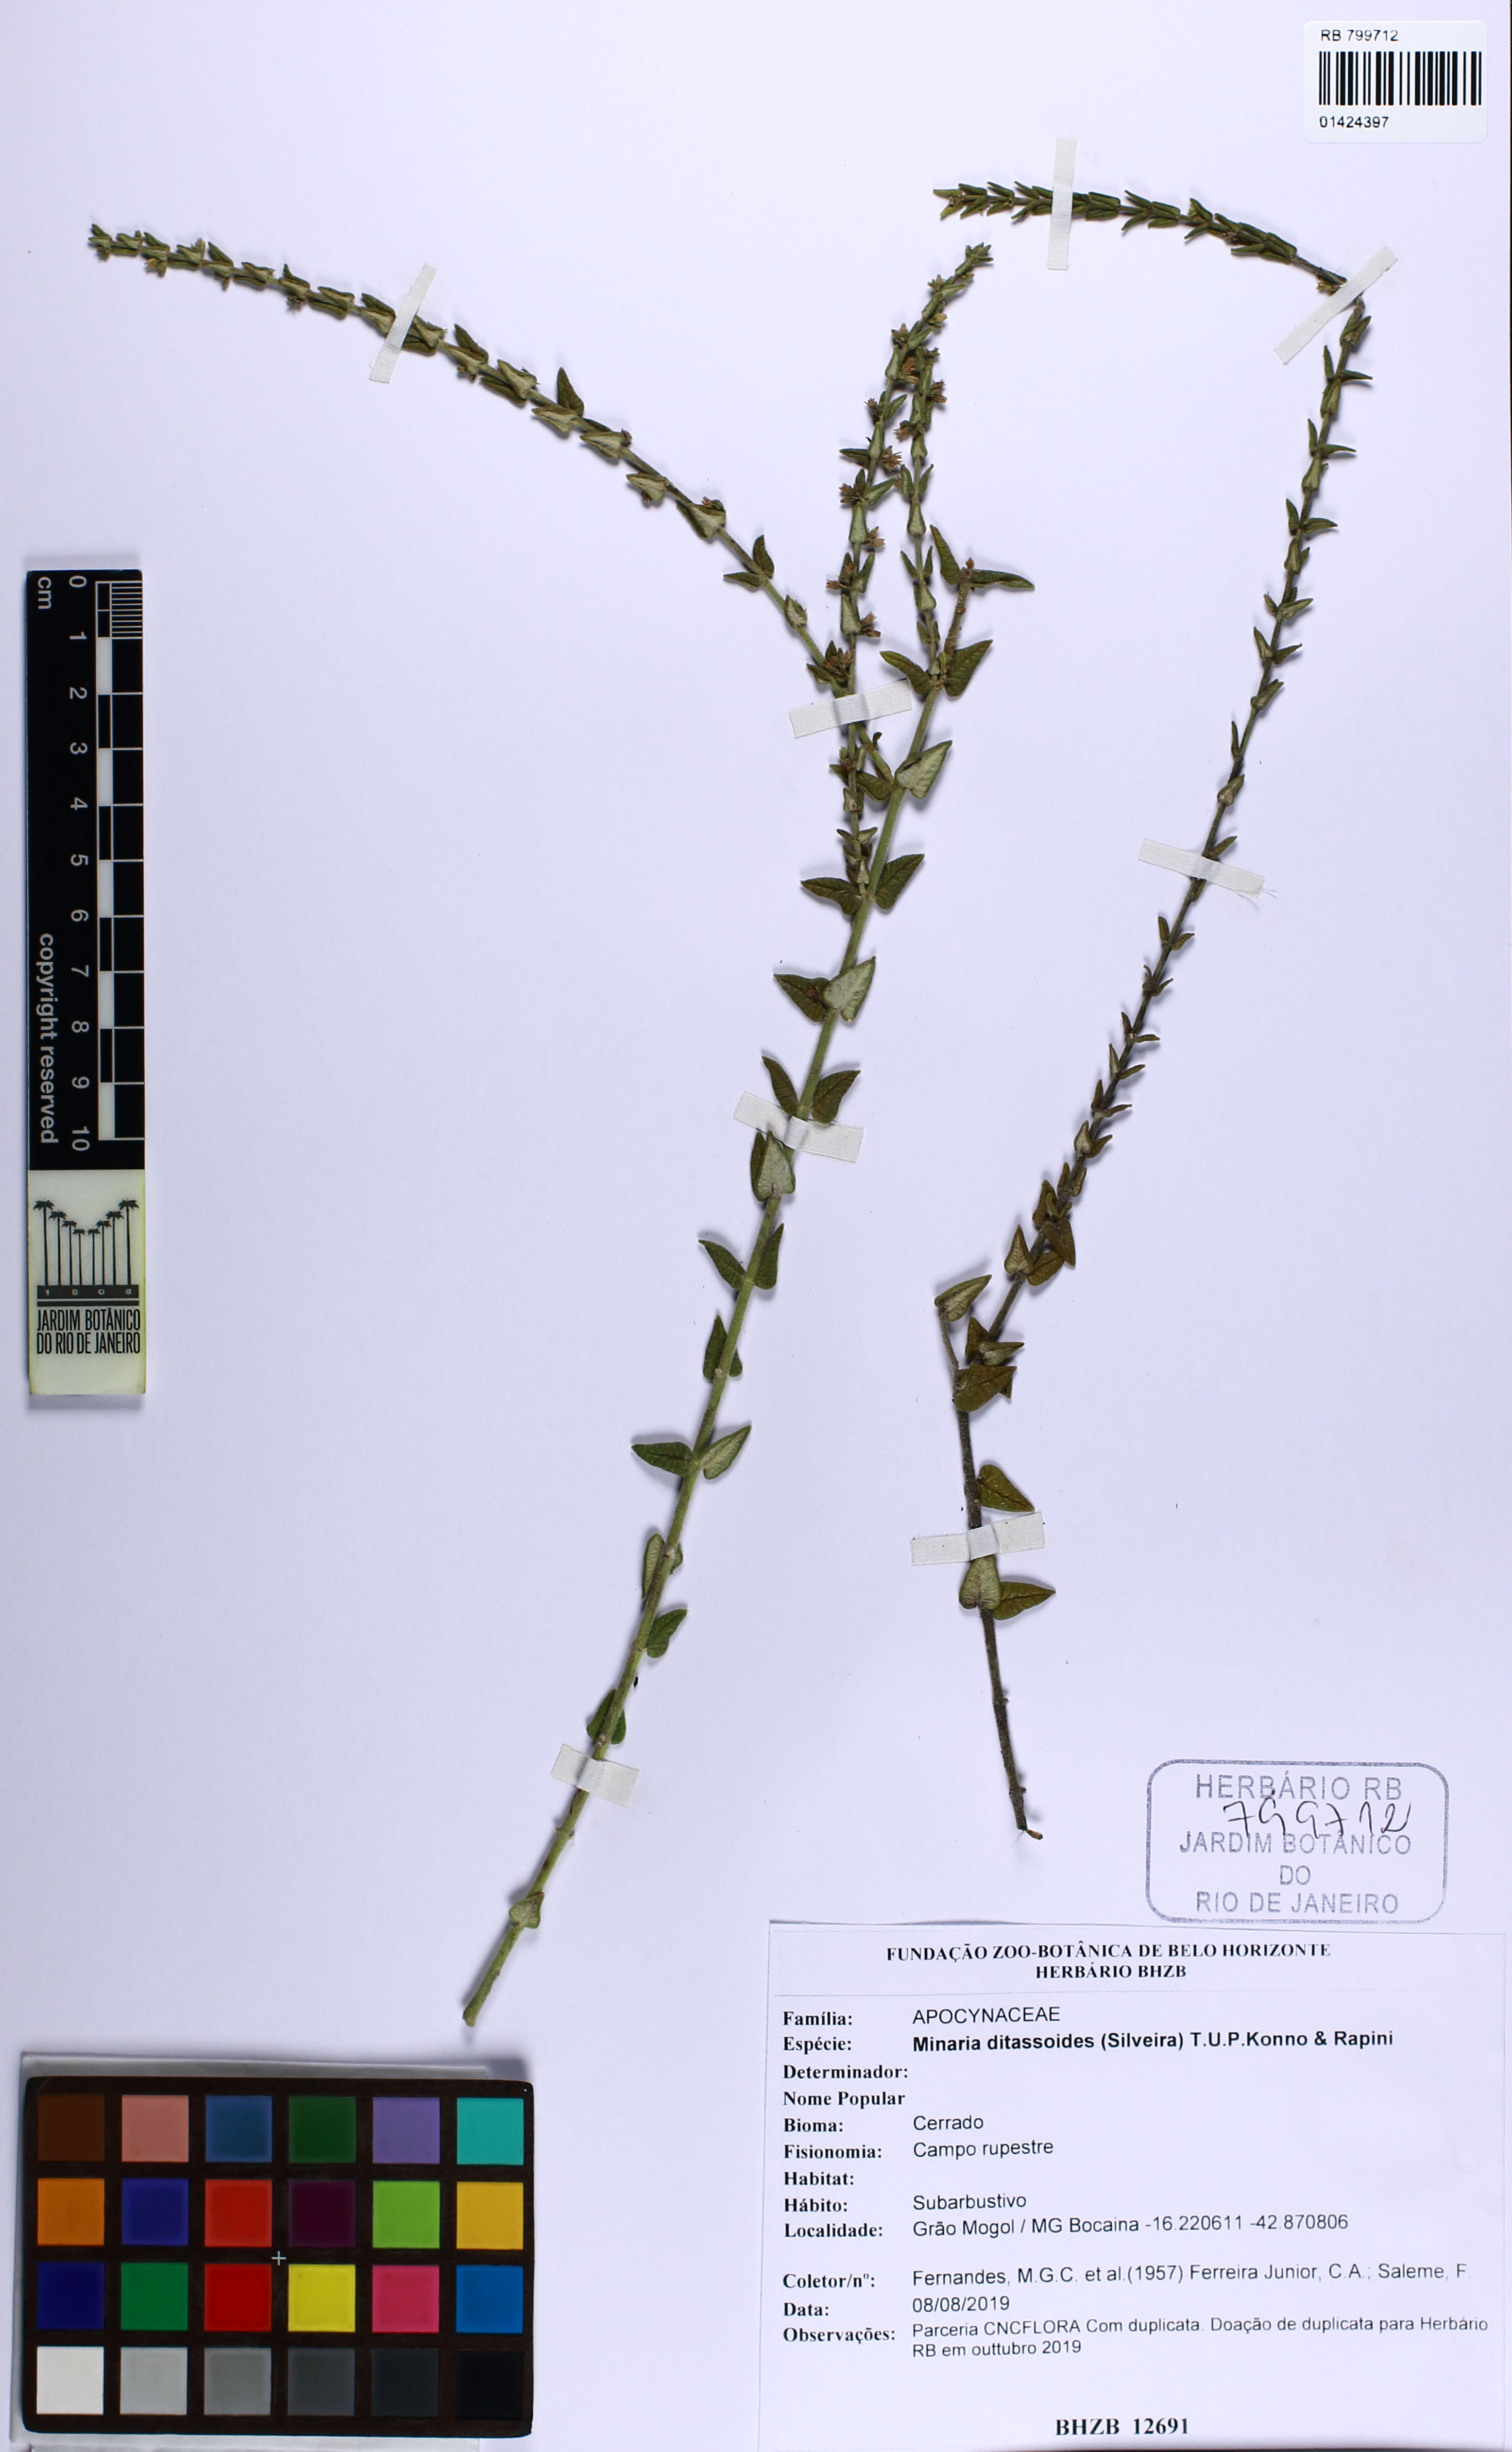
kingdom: Plantae
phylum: Tracheophyta
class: Magnoliopsida
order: Gentianales
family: Apocynaceae
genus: Minaria
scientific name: Minaria
